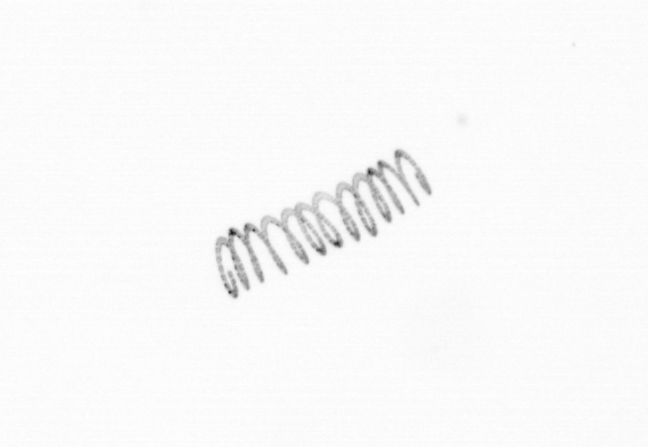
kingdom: Chromista
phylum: Ochrophyta
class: Bacillariophyceae
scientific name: Bacillariophyceae
